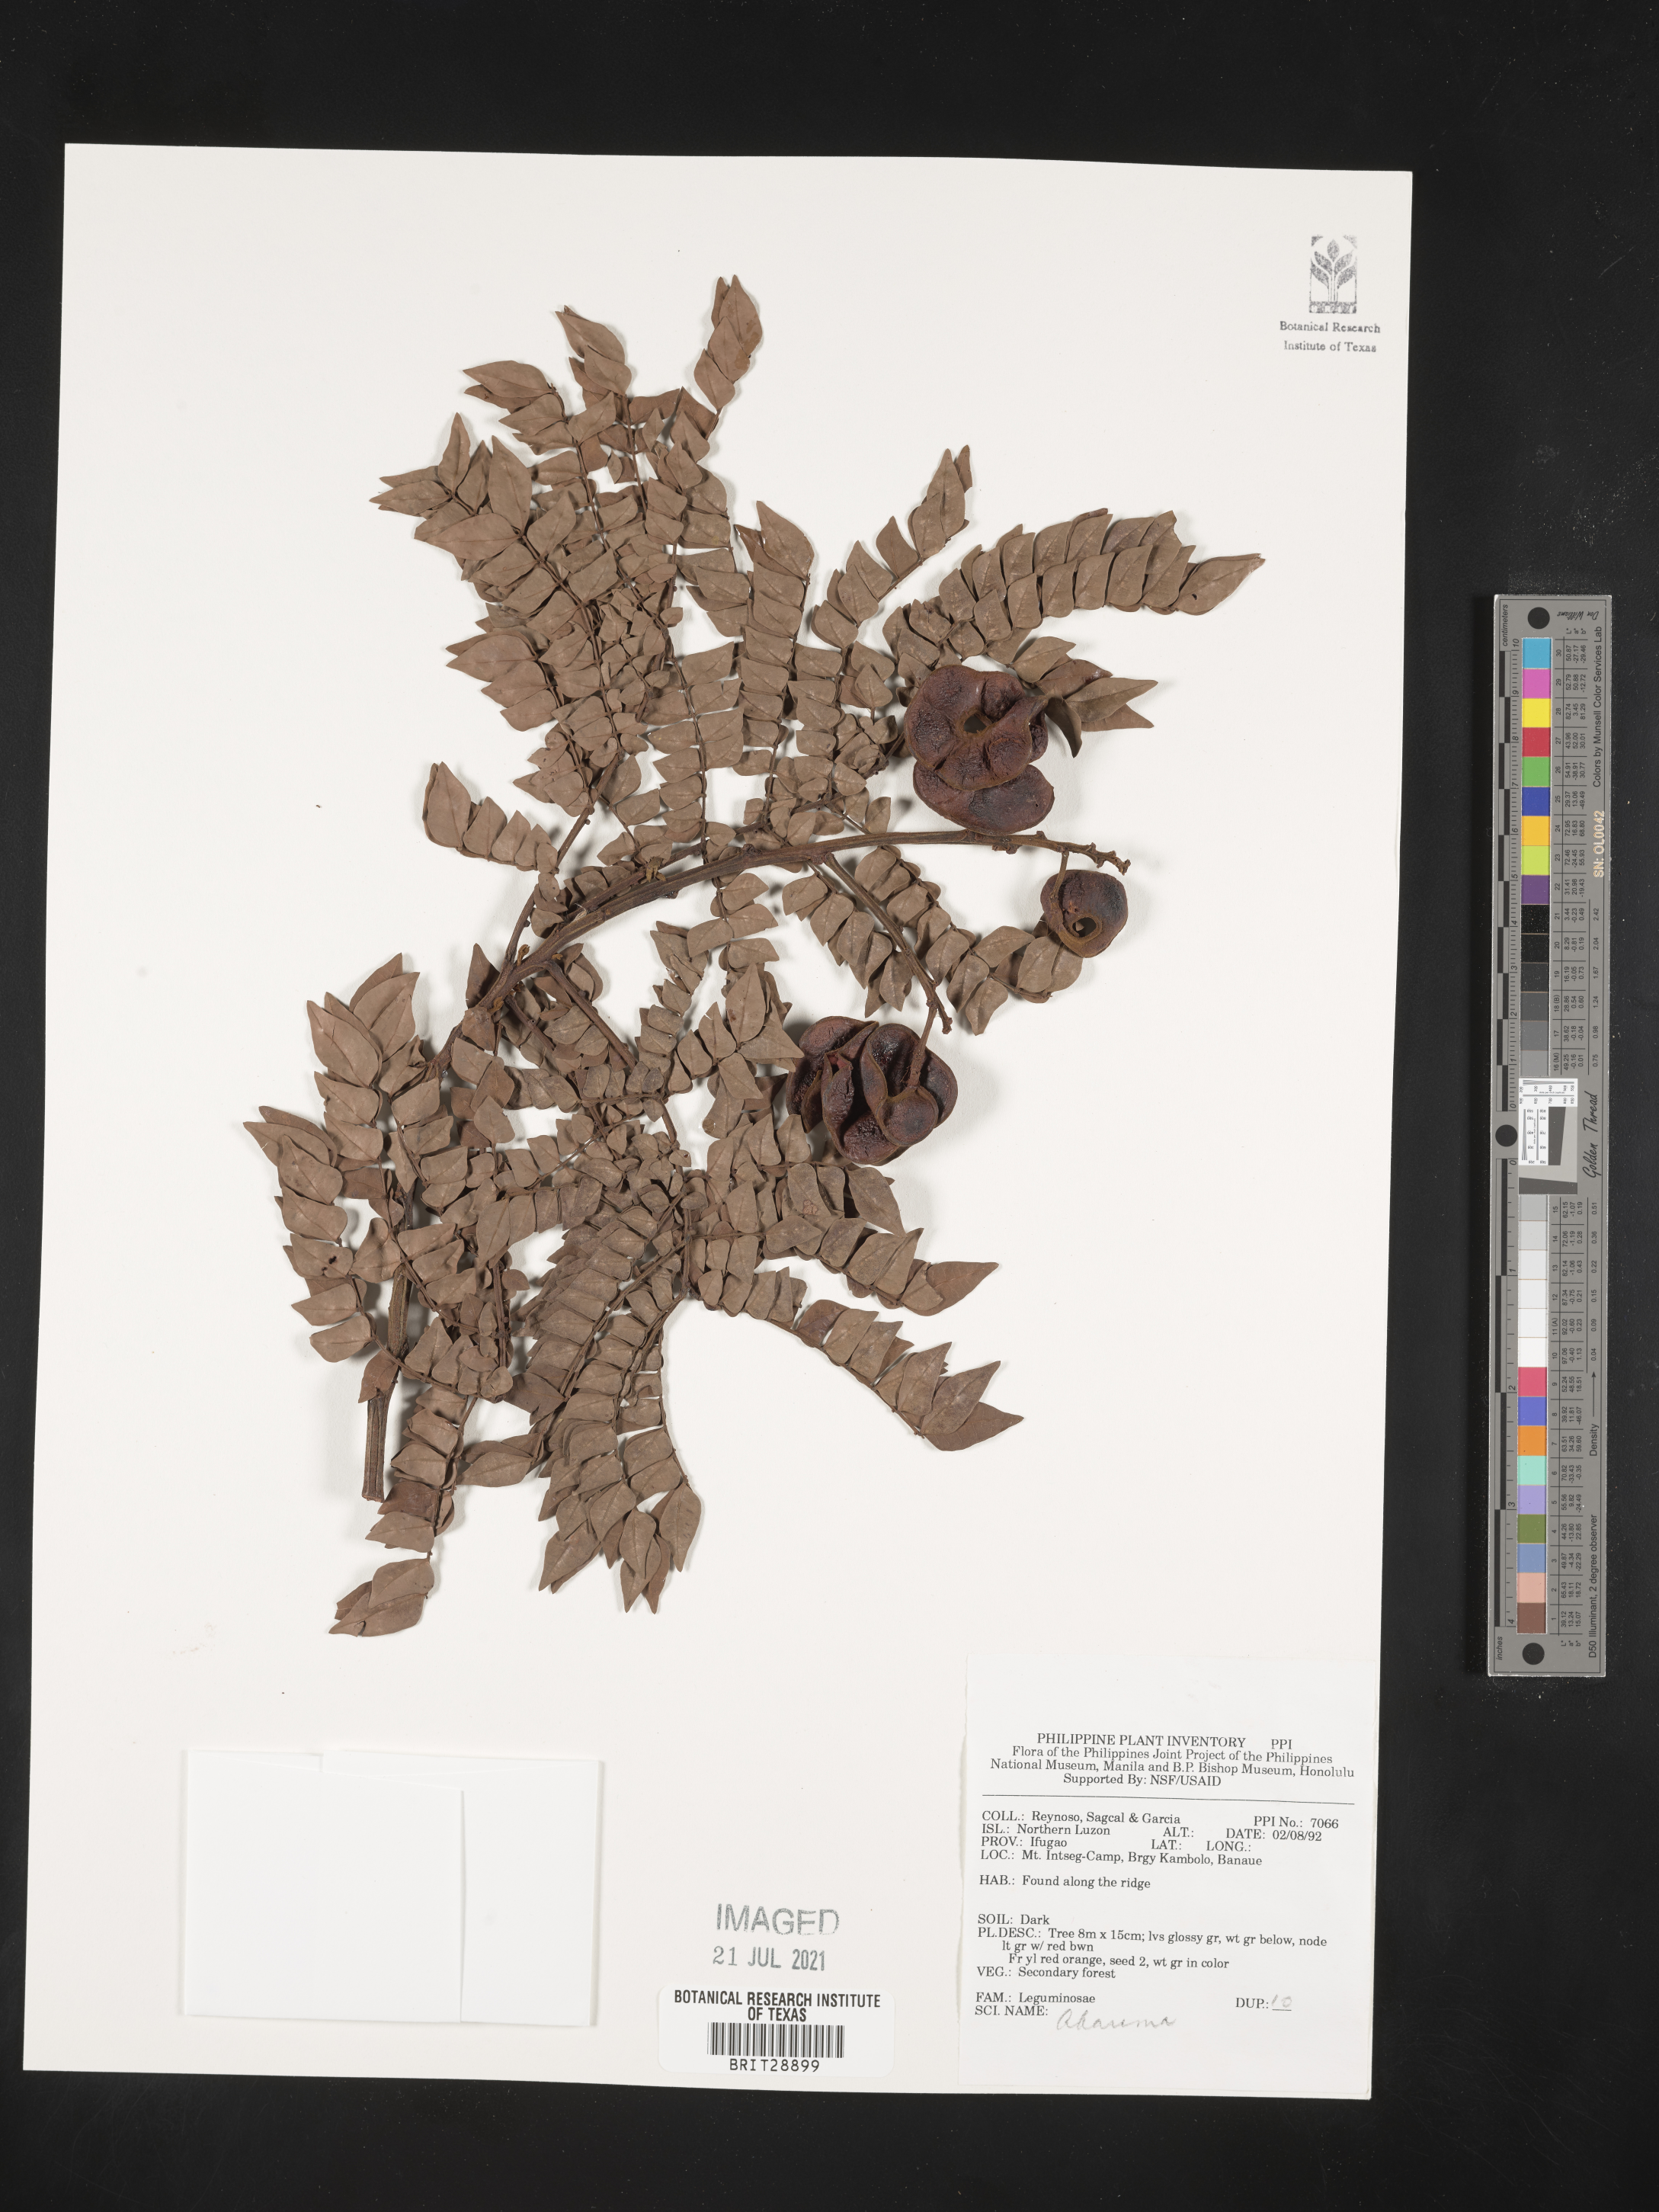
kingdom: Plantae
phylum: Tracheophyta
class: Magnoliopsida
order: Fabales
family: Fabaceae
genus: Abarema
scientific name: Abarema
